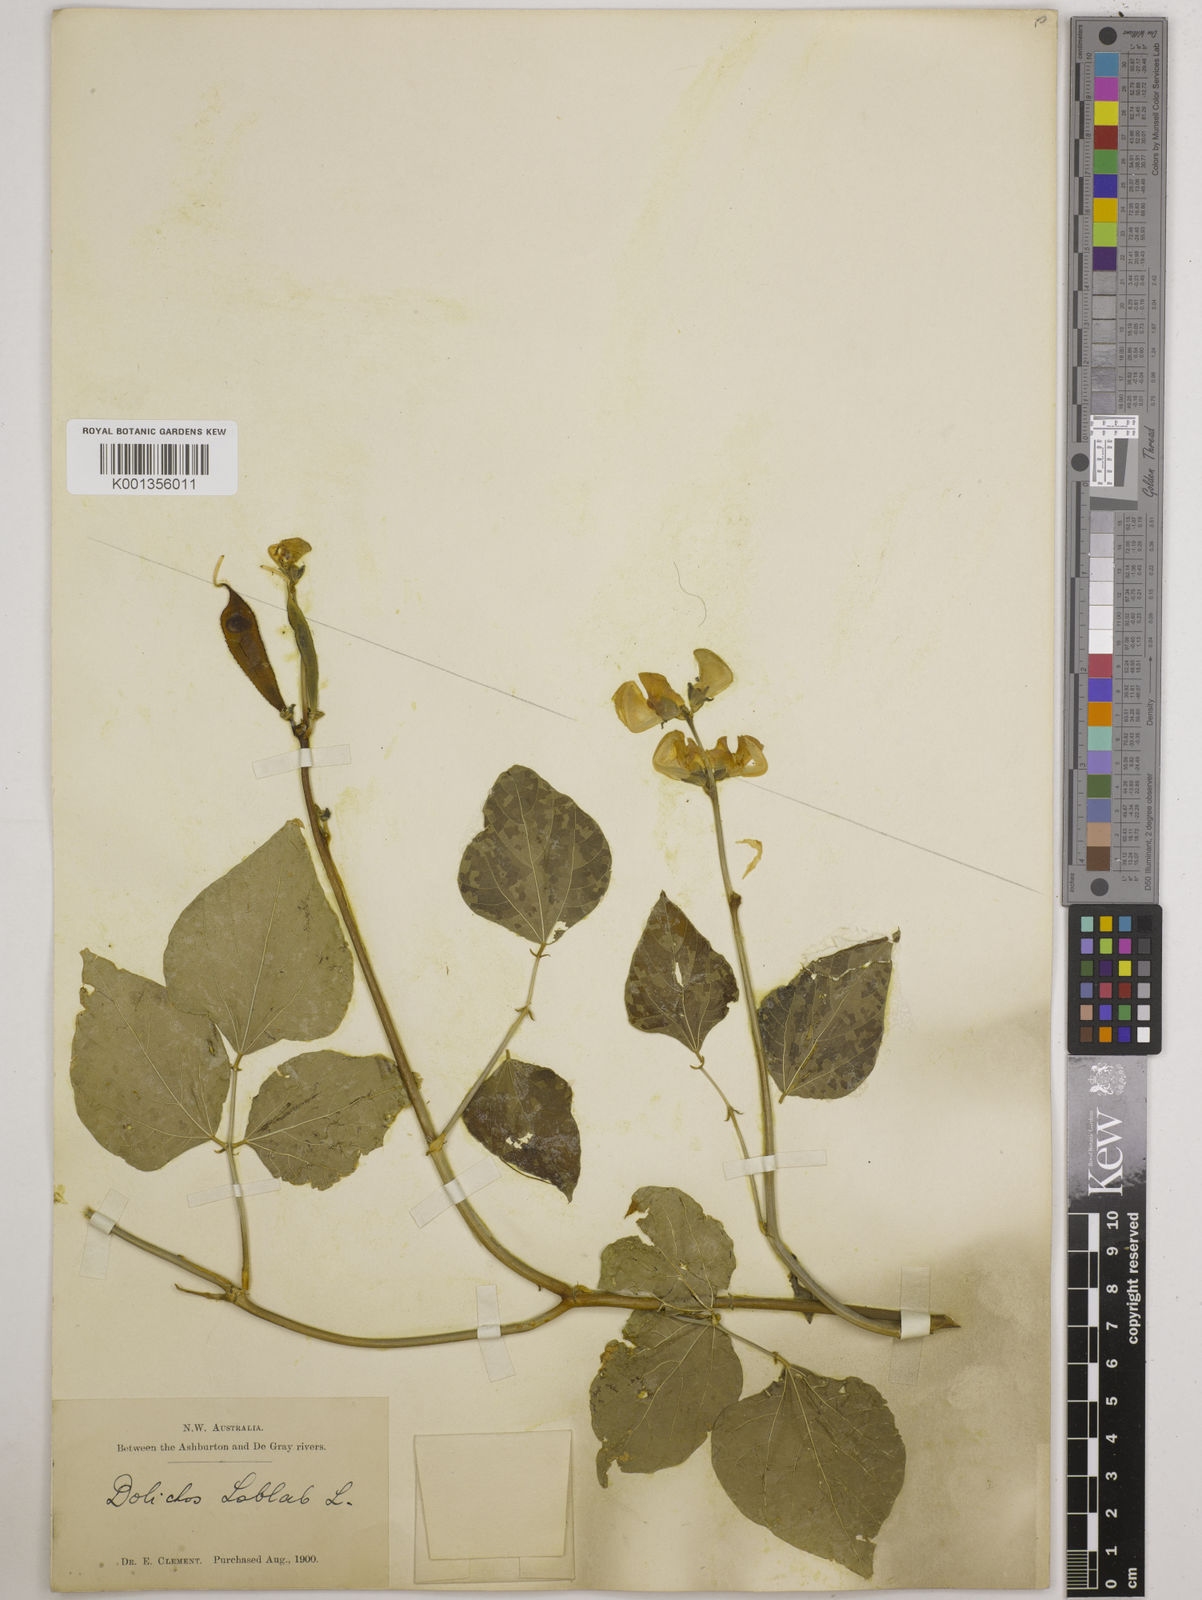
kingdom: Plantae
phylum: Tracheophyta
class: Magnoliopsida
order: Fabales
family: Fabaceae
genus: Lablab
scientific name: Lablab purpureus
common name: Lablab-bean
